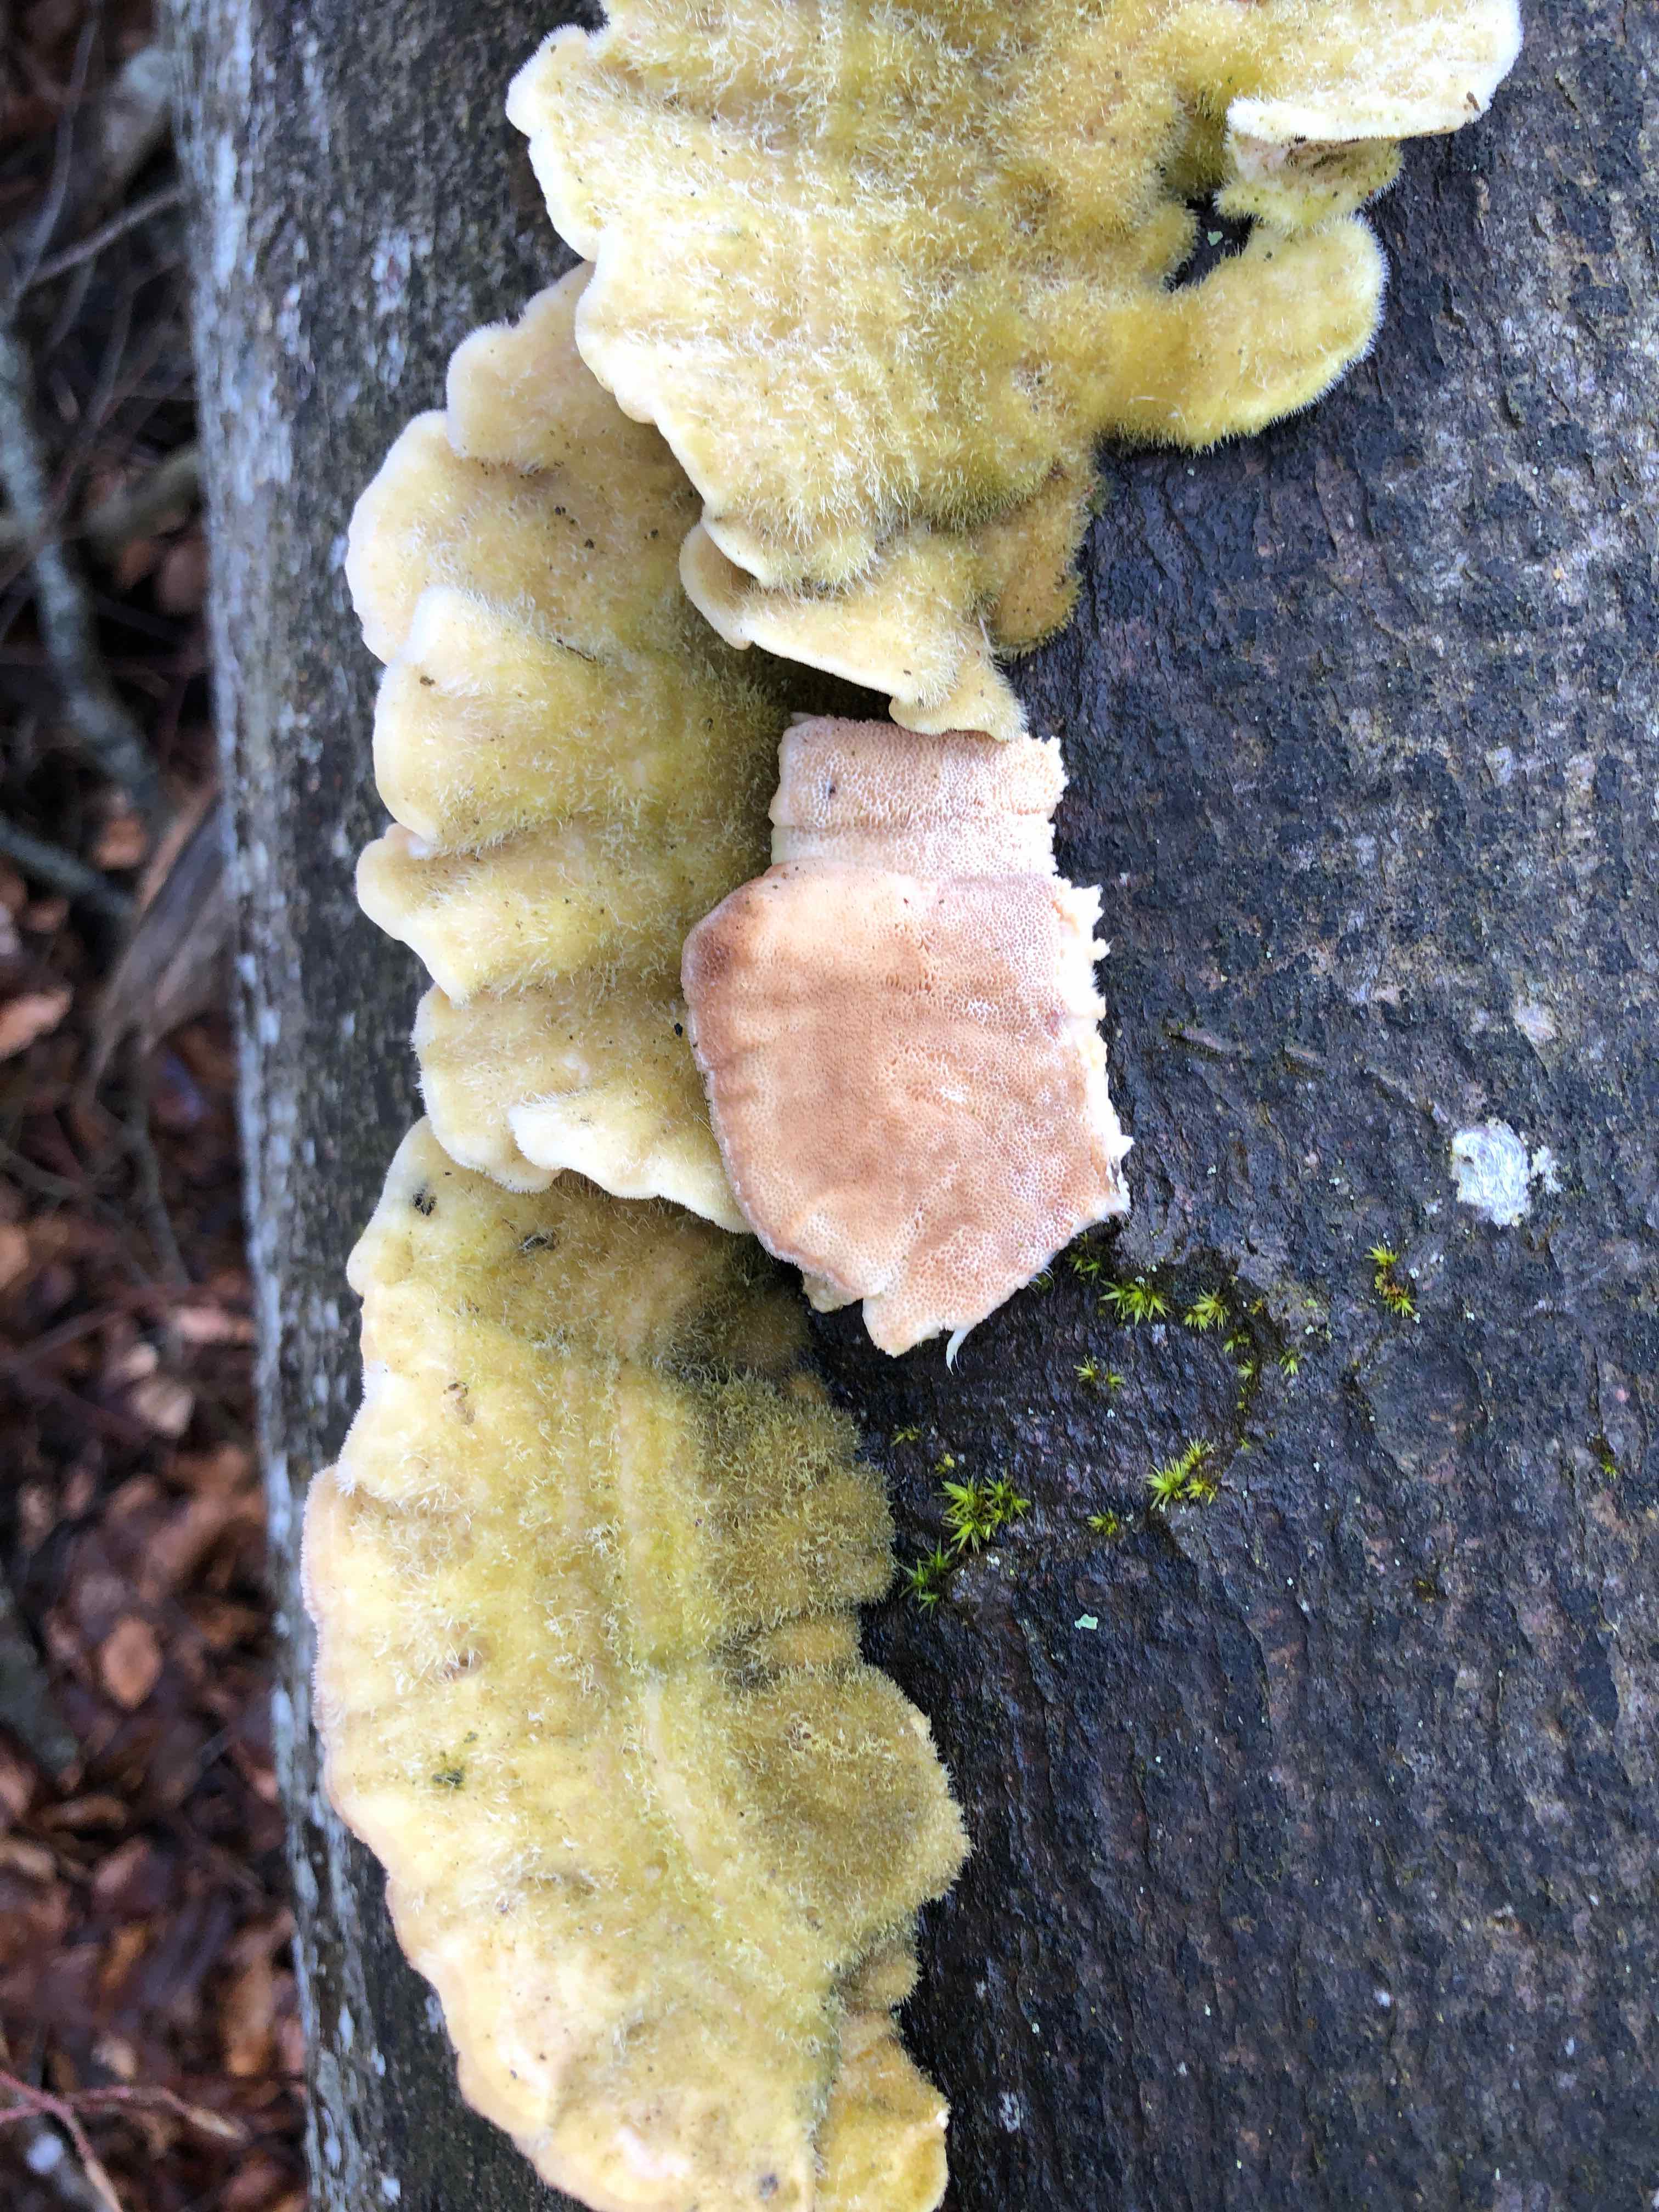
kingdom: Fungi
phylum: Basidiomycota
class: Agaricomycetes
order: Polyporales
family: Polyporaceae
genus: Trametes
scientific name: Trametes hirsuta
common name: håret læderporesvamp
